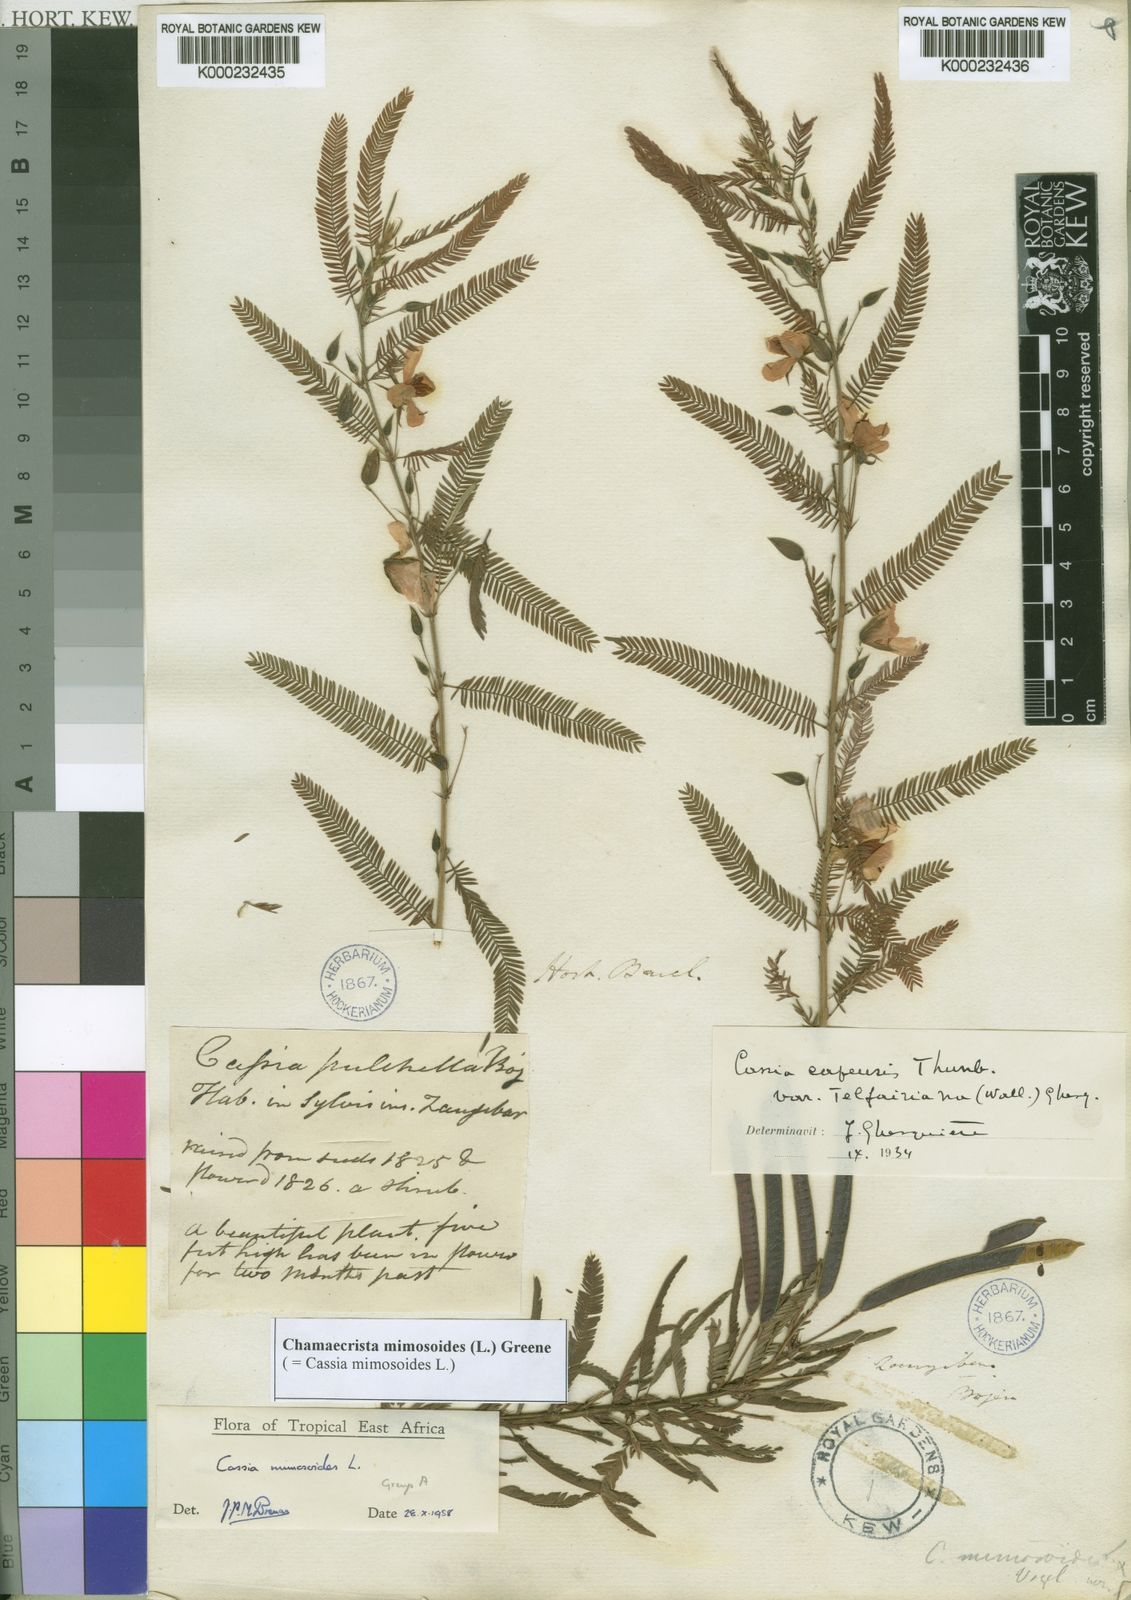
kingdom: Plantae
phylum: Tracheophyta
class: Magnoliopsida
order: Fabales
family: Fabaceae
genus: Chamaecrista
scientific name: Chamaecrista mimosoides
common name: Fish-bone cassia
